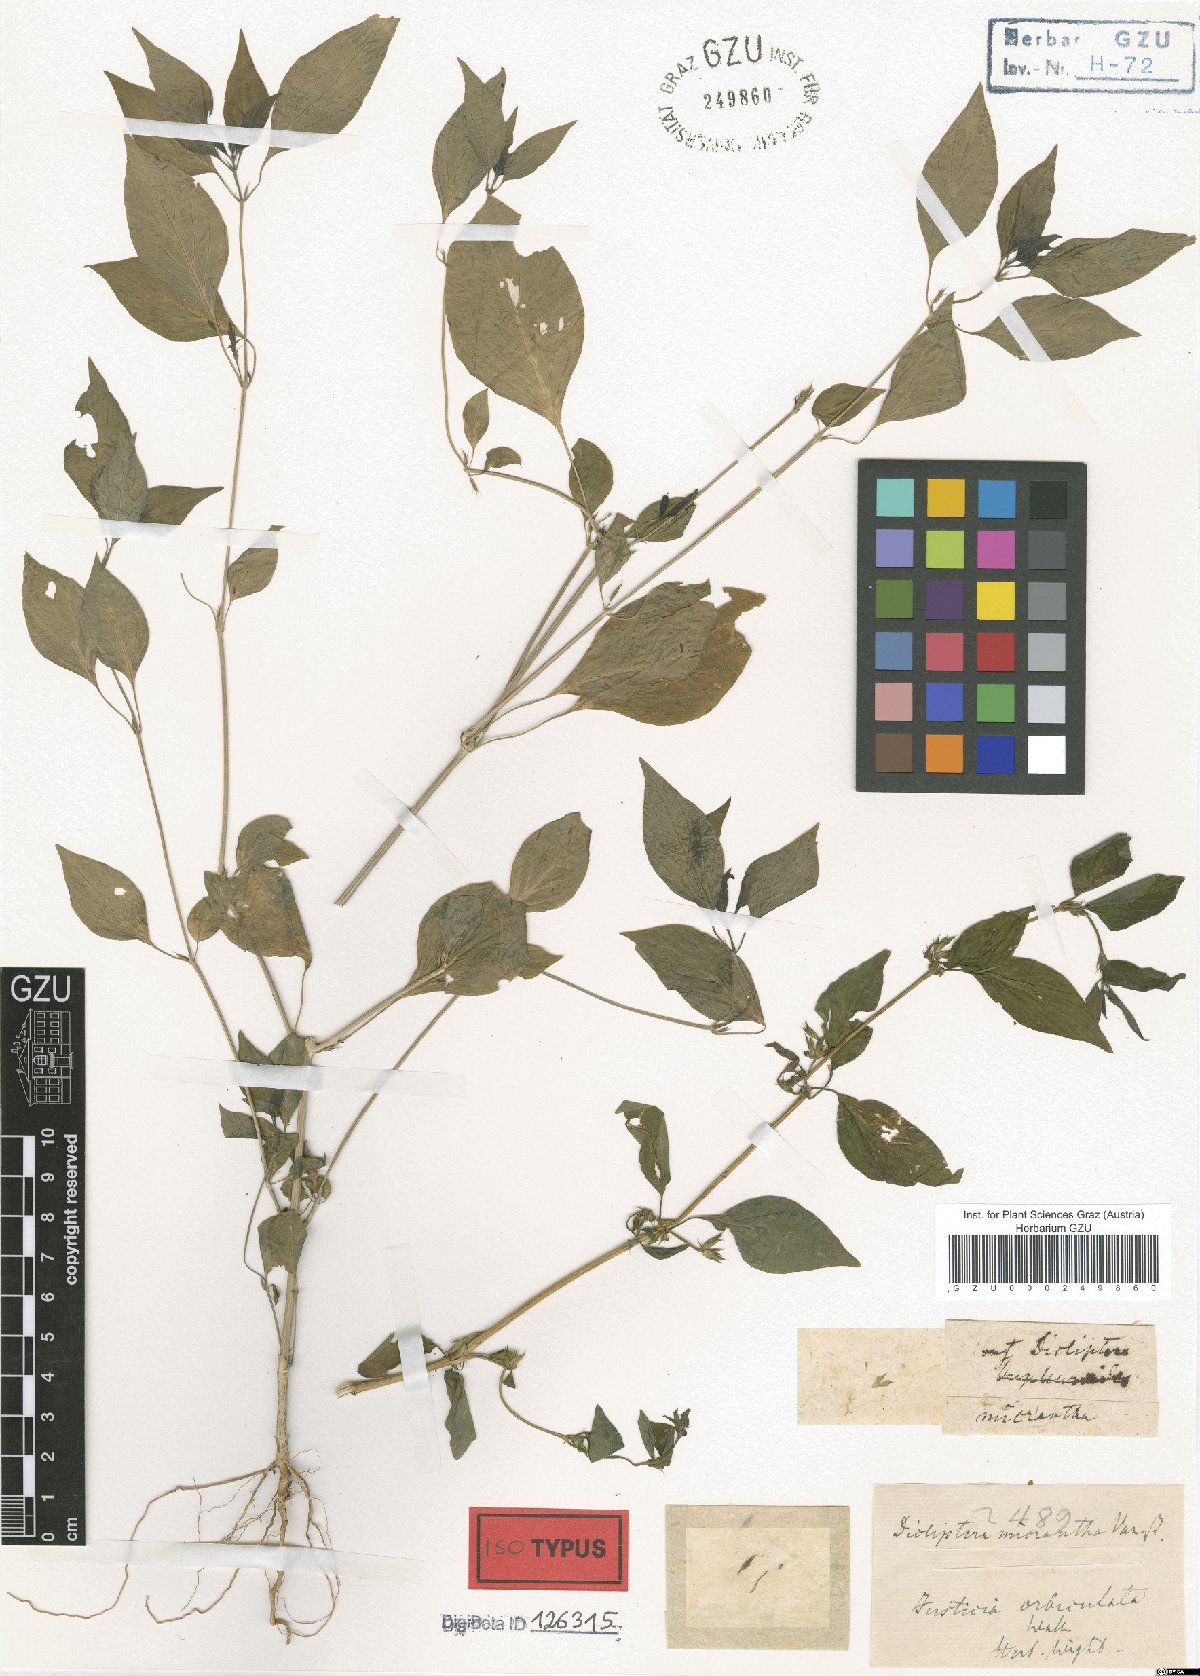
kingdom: Plantae
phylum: Tracheophyta
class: Magnoliopsida
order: Lamiales
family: Acanthaceae
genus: Dicliptera
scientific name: Dicliptera verticillata
